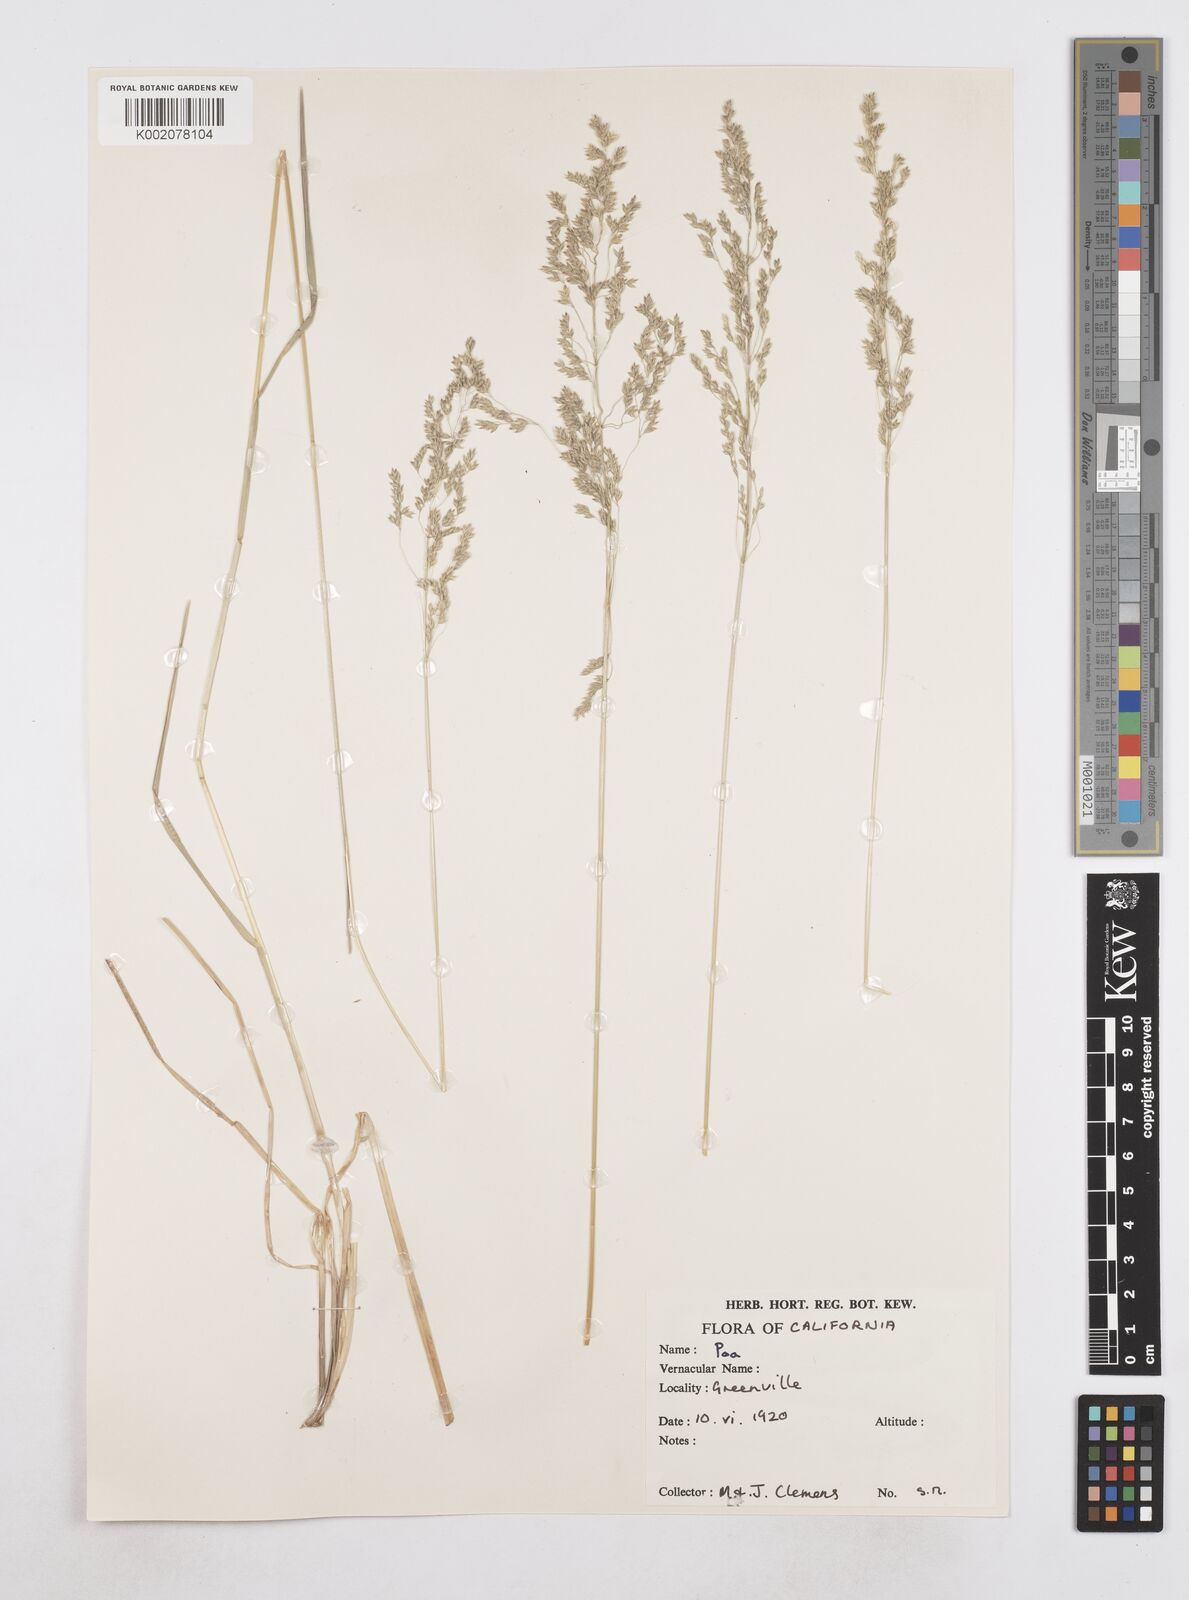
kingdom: Plantae
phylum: Tracheophyta
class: Liliopsida
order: Poales
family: Poaceae
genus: Poa
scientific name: Poa
